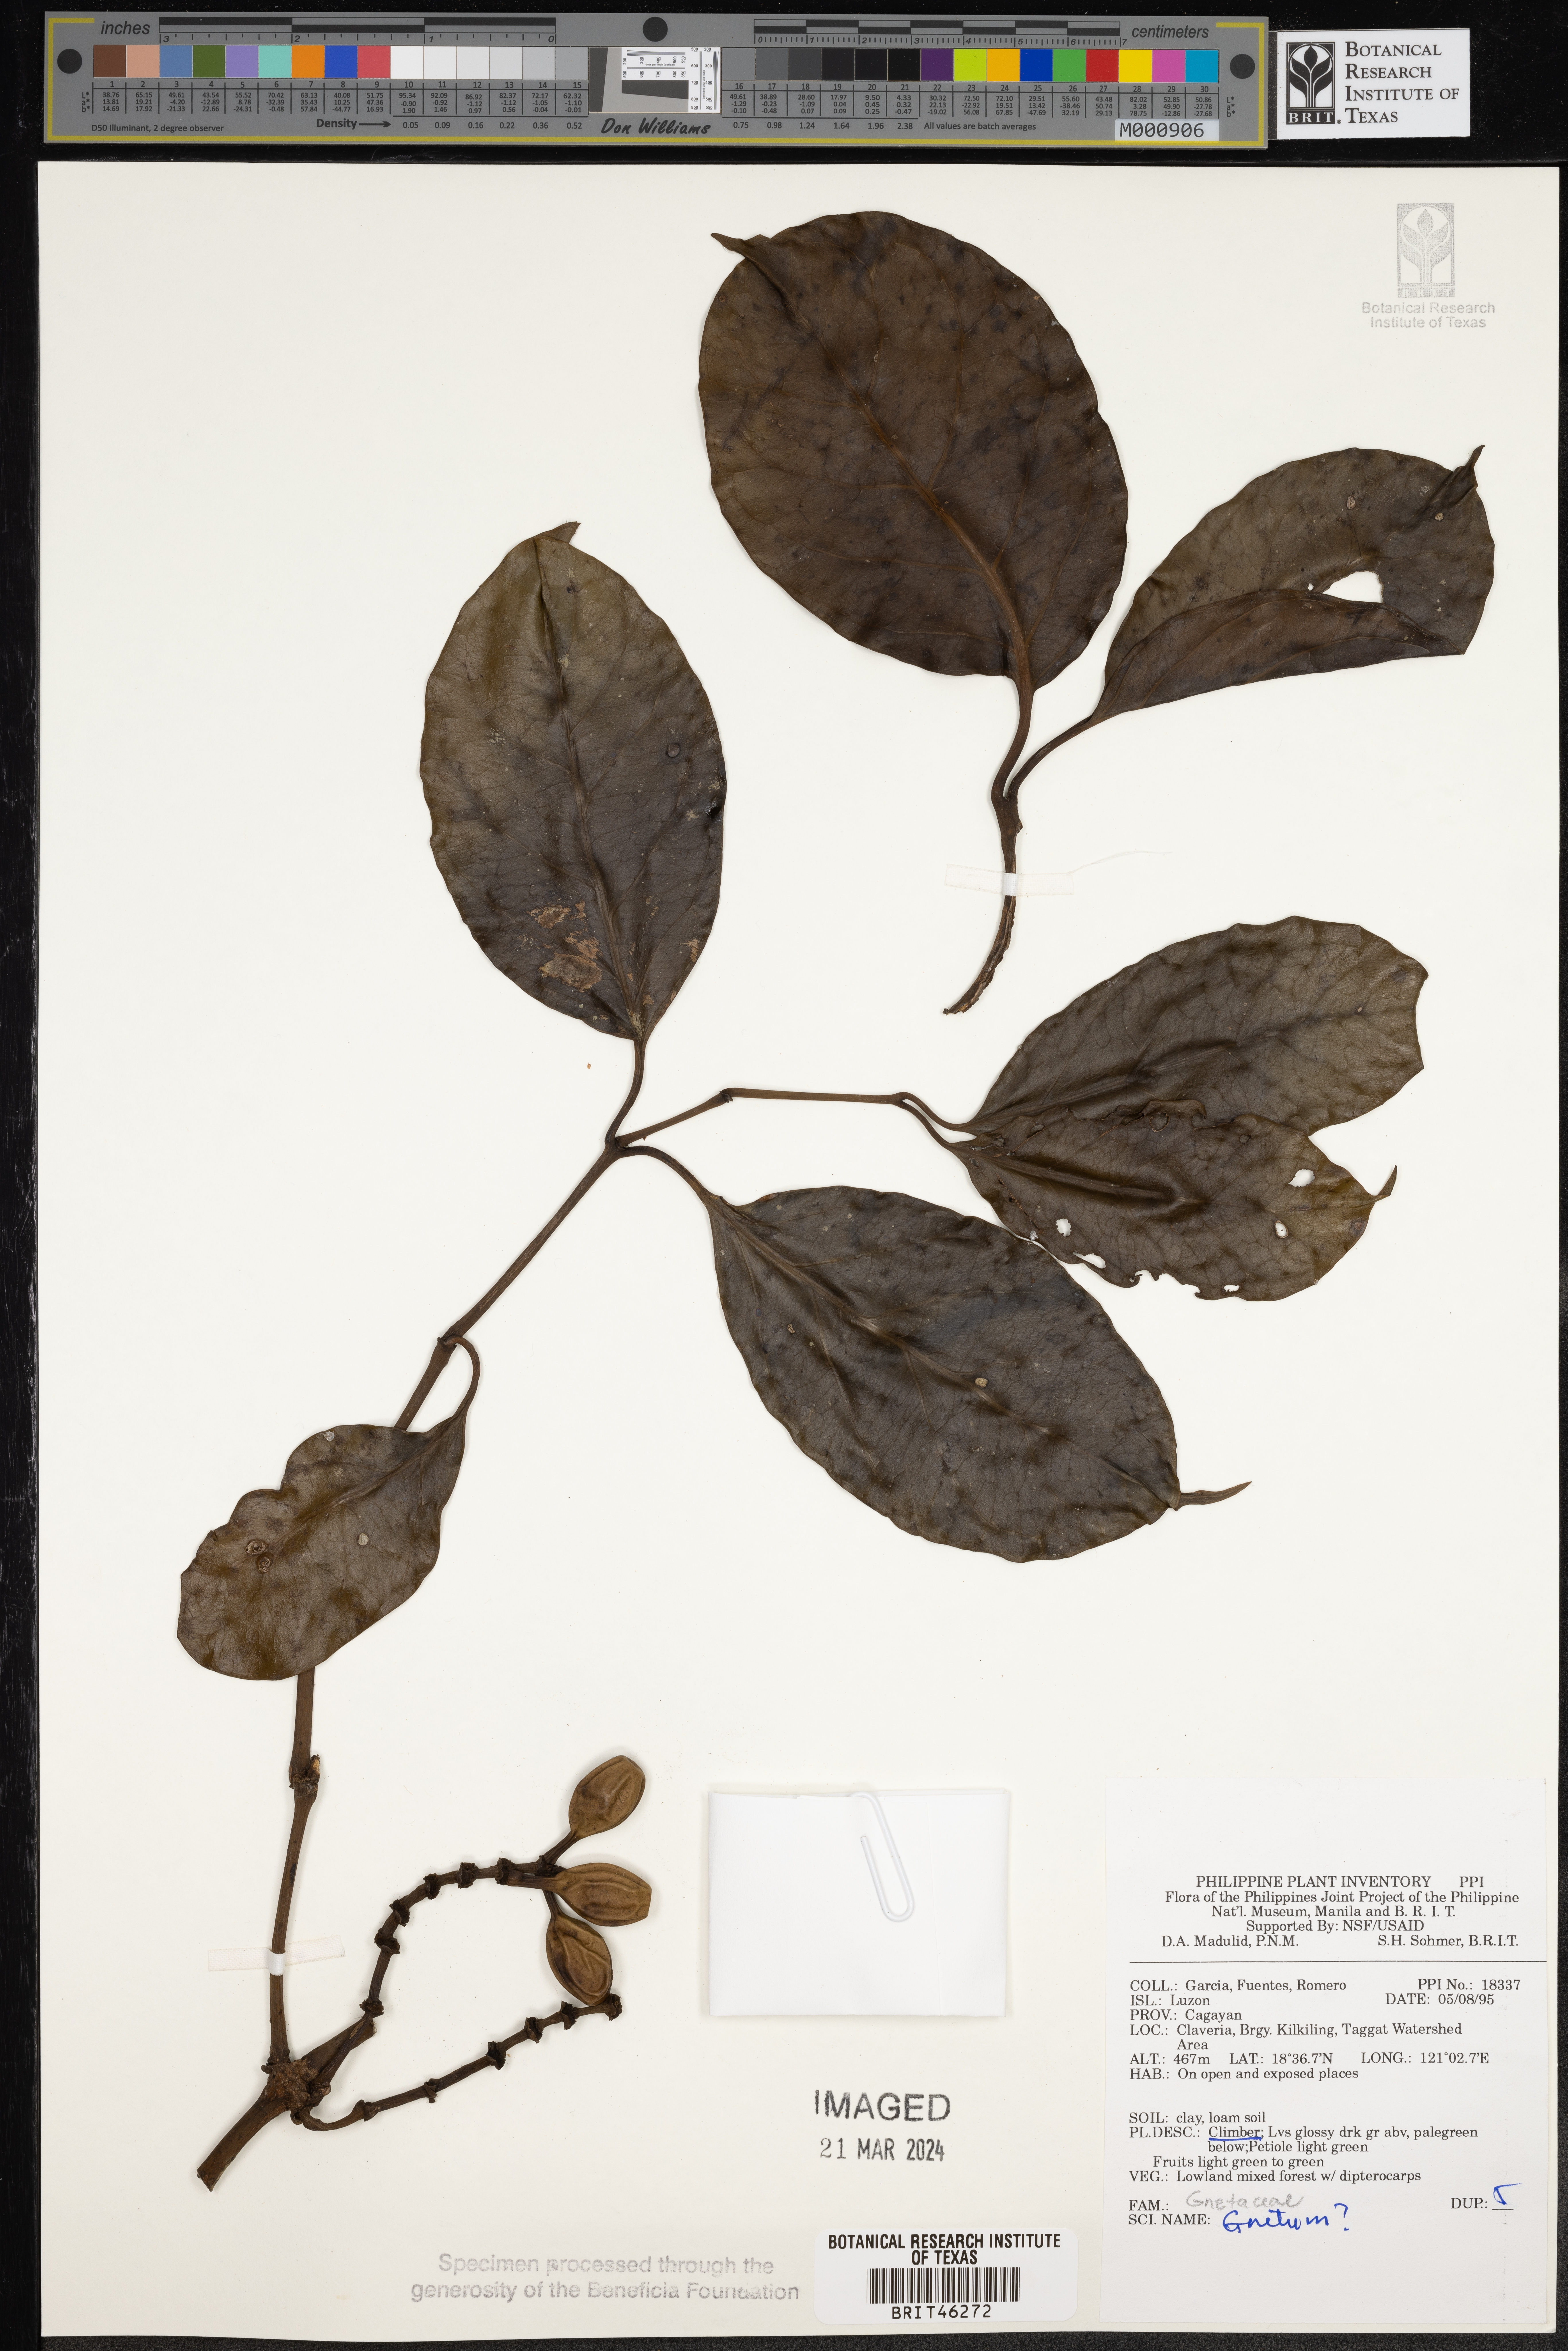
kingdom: Plantae
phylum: Tracheophyta
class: Gnetopsida
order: Gnetales
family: Gnetaceae
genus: Gnetum
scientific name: Gnetum
